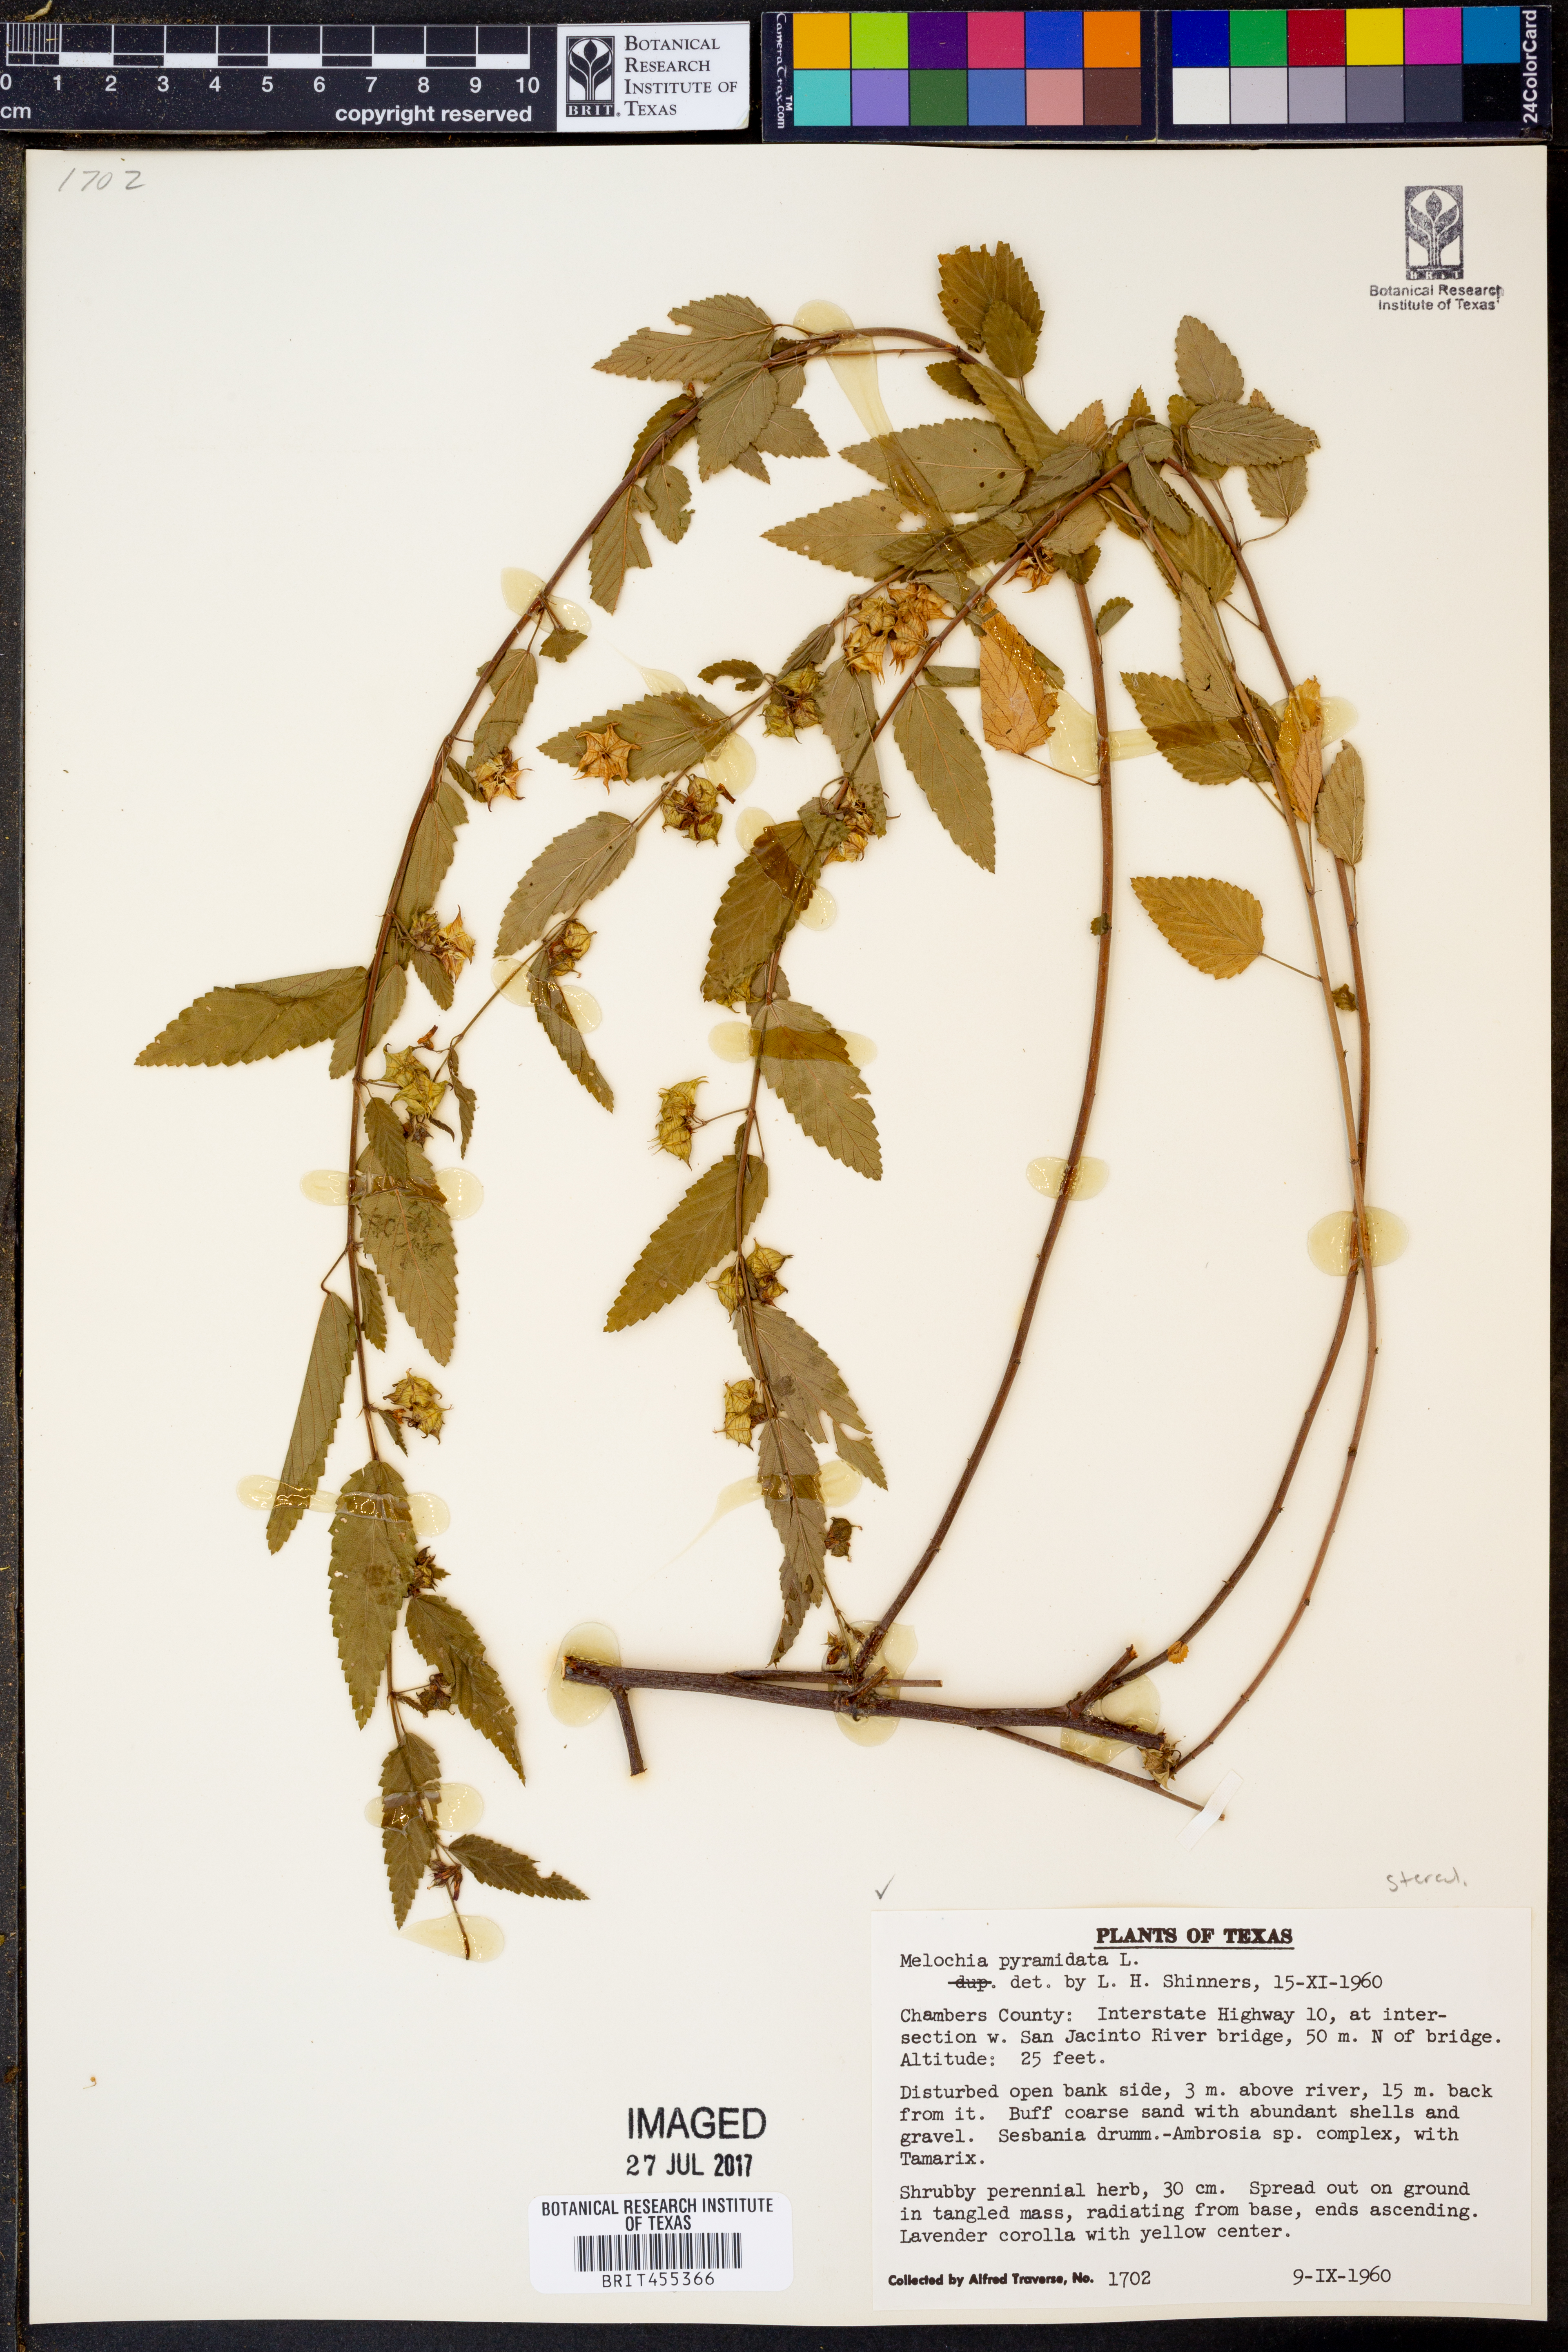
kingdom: Plantae
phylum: Tracheophyta
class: Magnoliopsida
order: Malvales
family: Malvaceae
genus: Melochia
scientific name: Melochia pyramidata
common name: Pyramidflower
